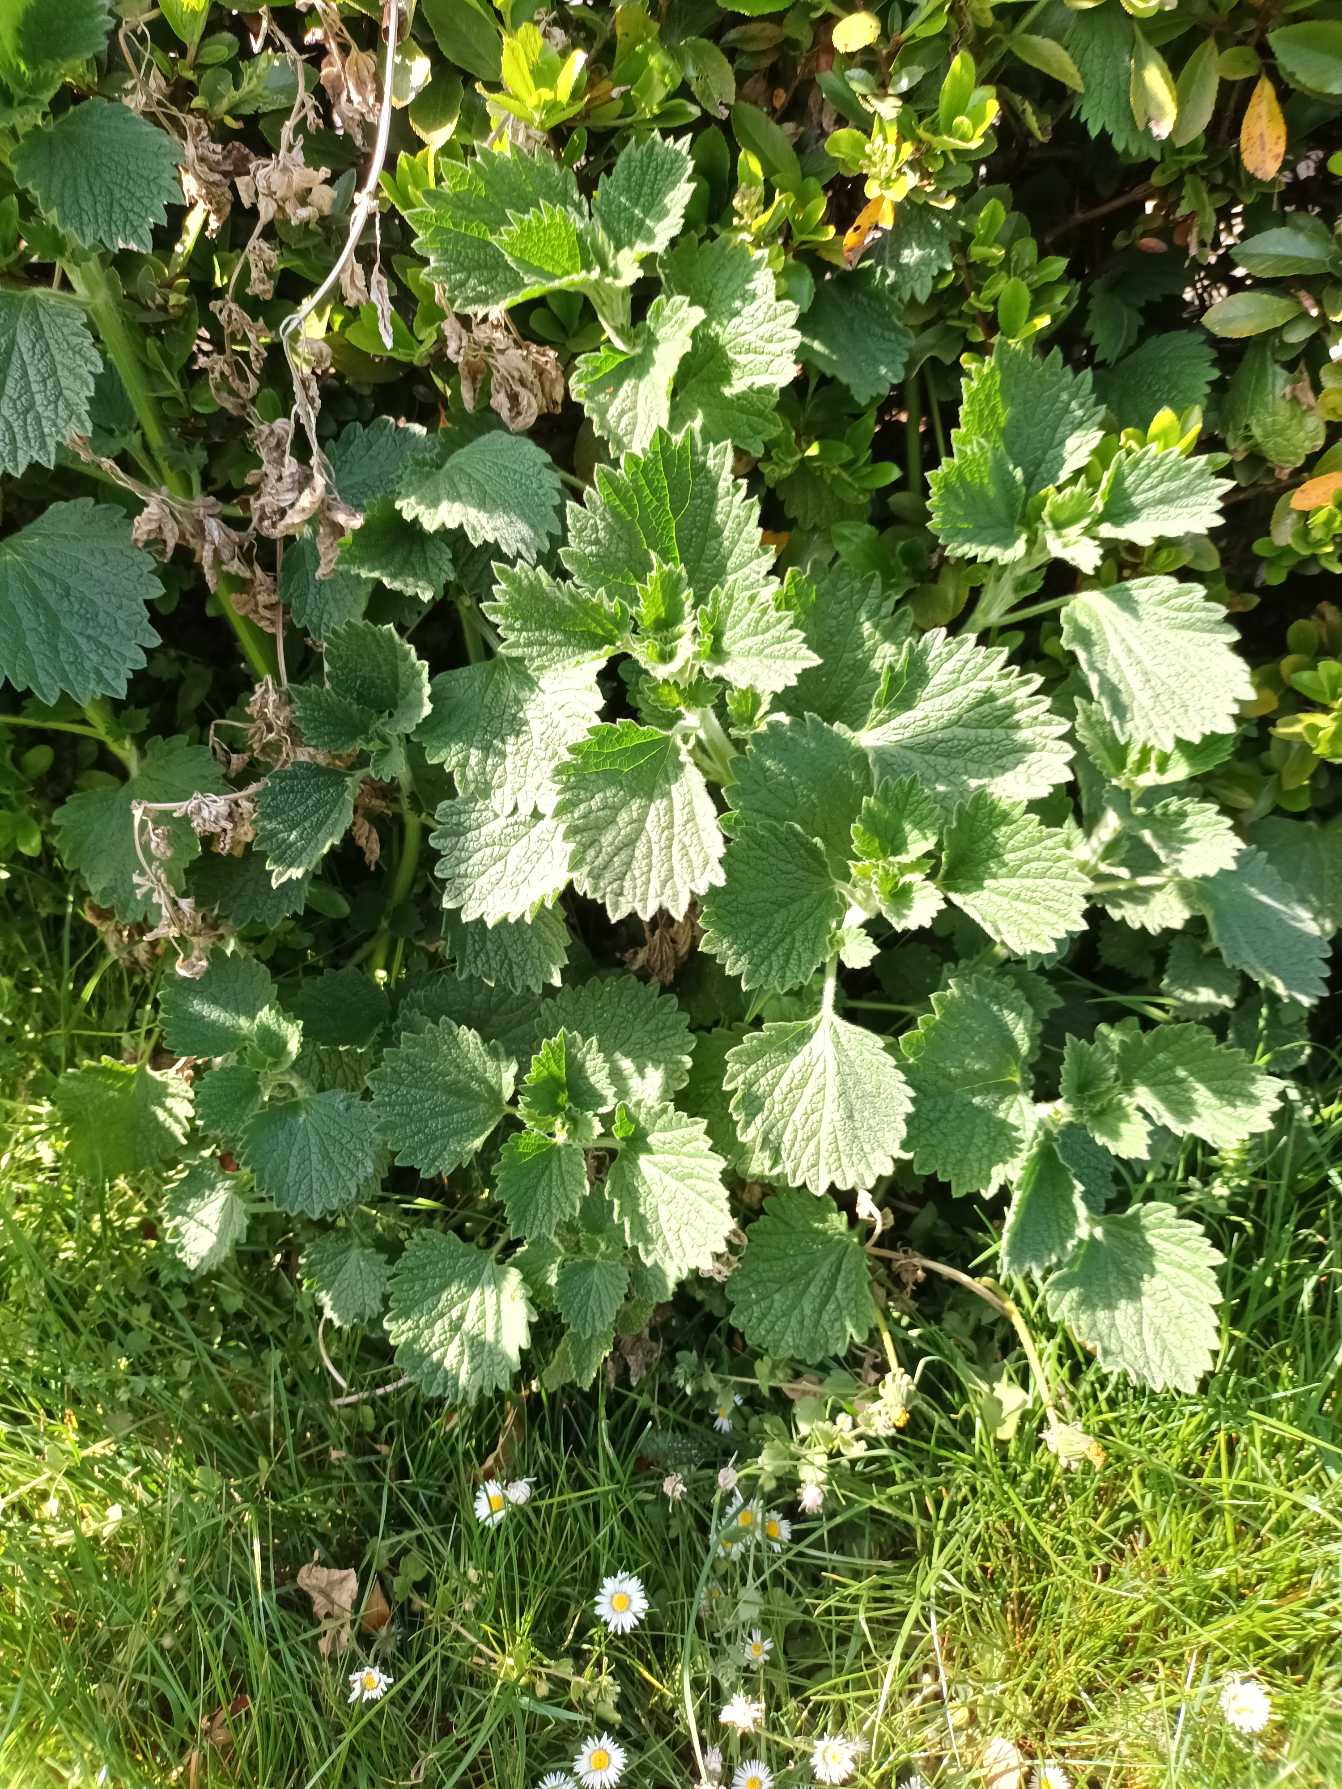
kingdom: Plantae
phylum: Tracheophyta
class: Magnoliopsida
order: Lamiales
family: Lamiaceae
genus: Ballota
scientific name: Ballota nigra
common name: Tandbæger
